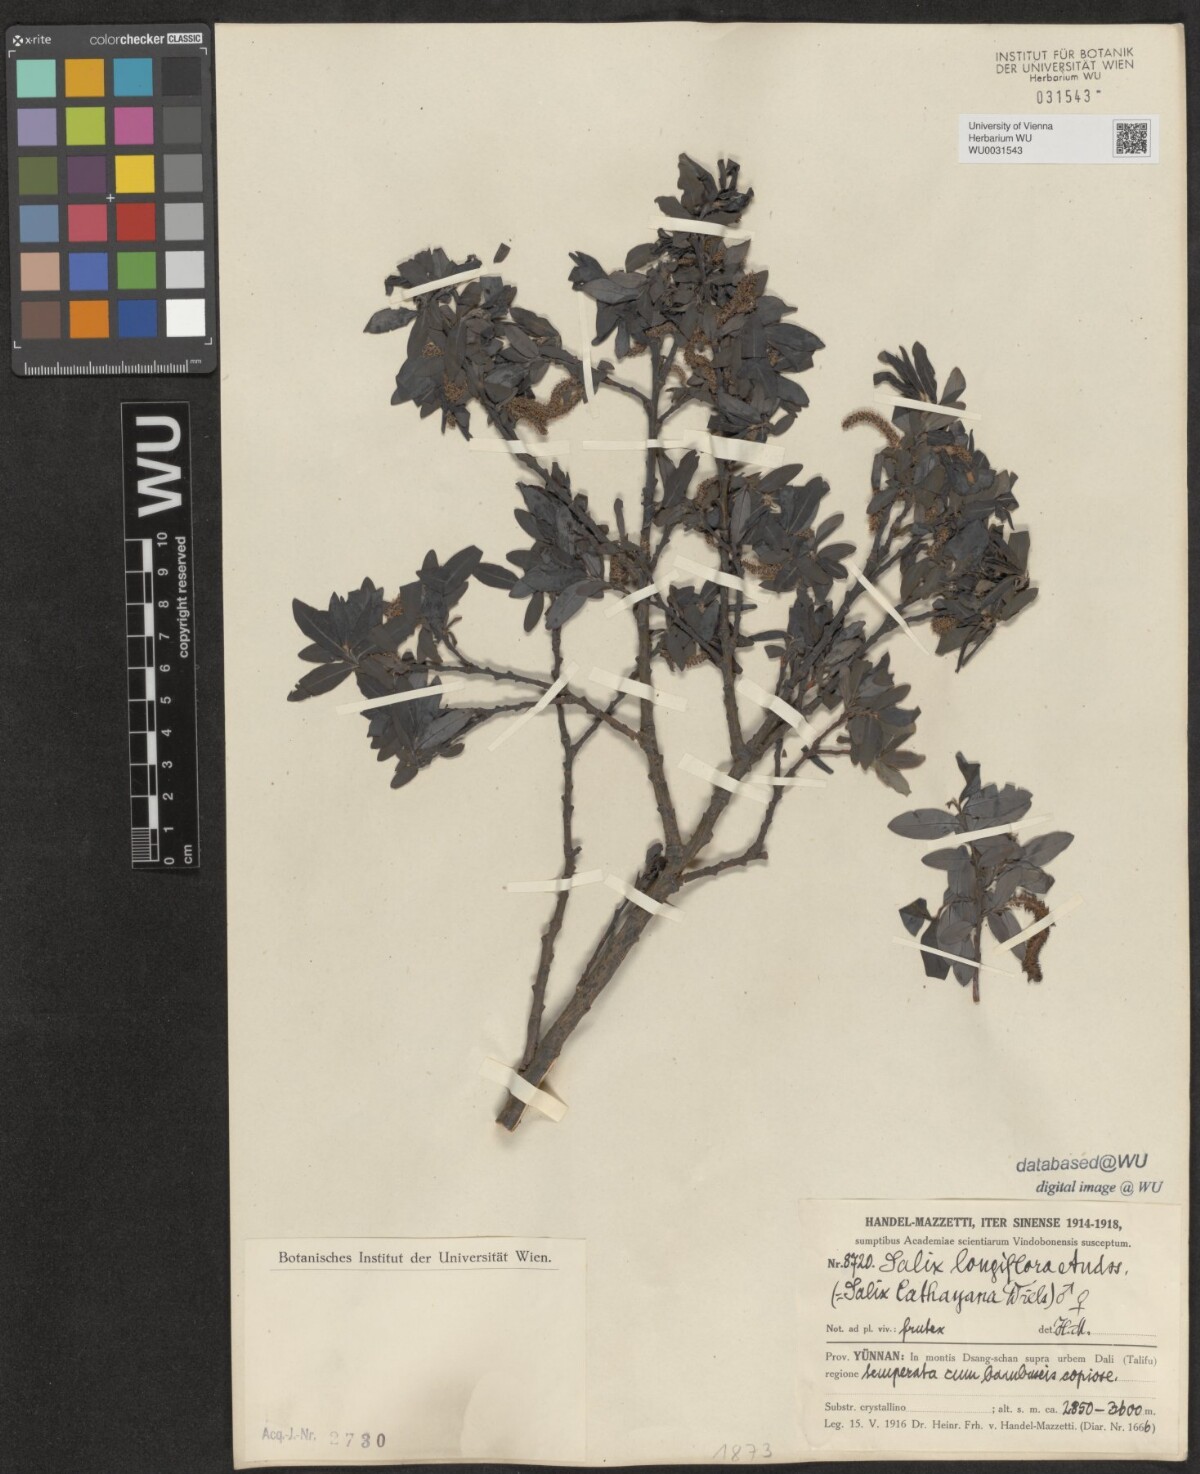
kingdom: Plantae
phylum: Tracheophyta
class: Magnoliopsida
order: Malpighiales
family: Salicaceae
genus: Salix
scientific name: Salix longiflora
